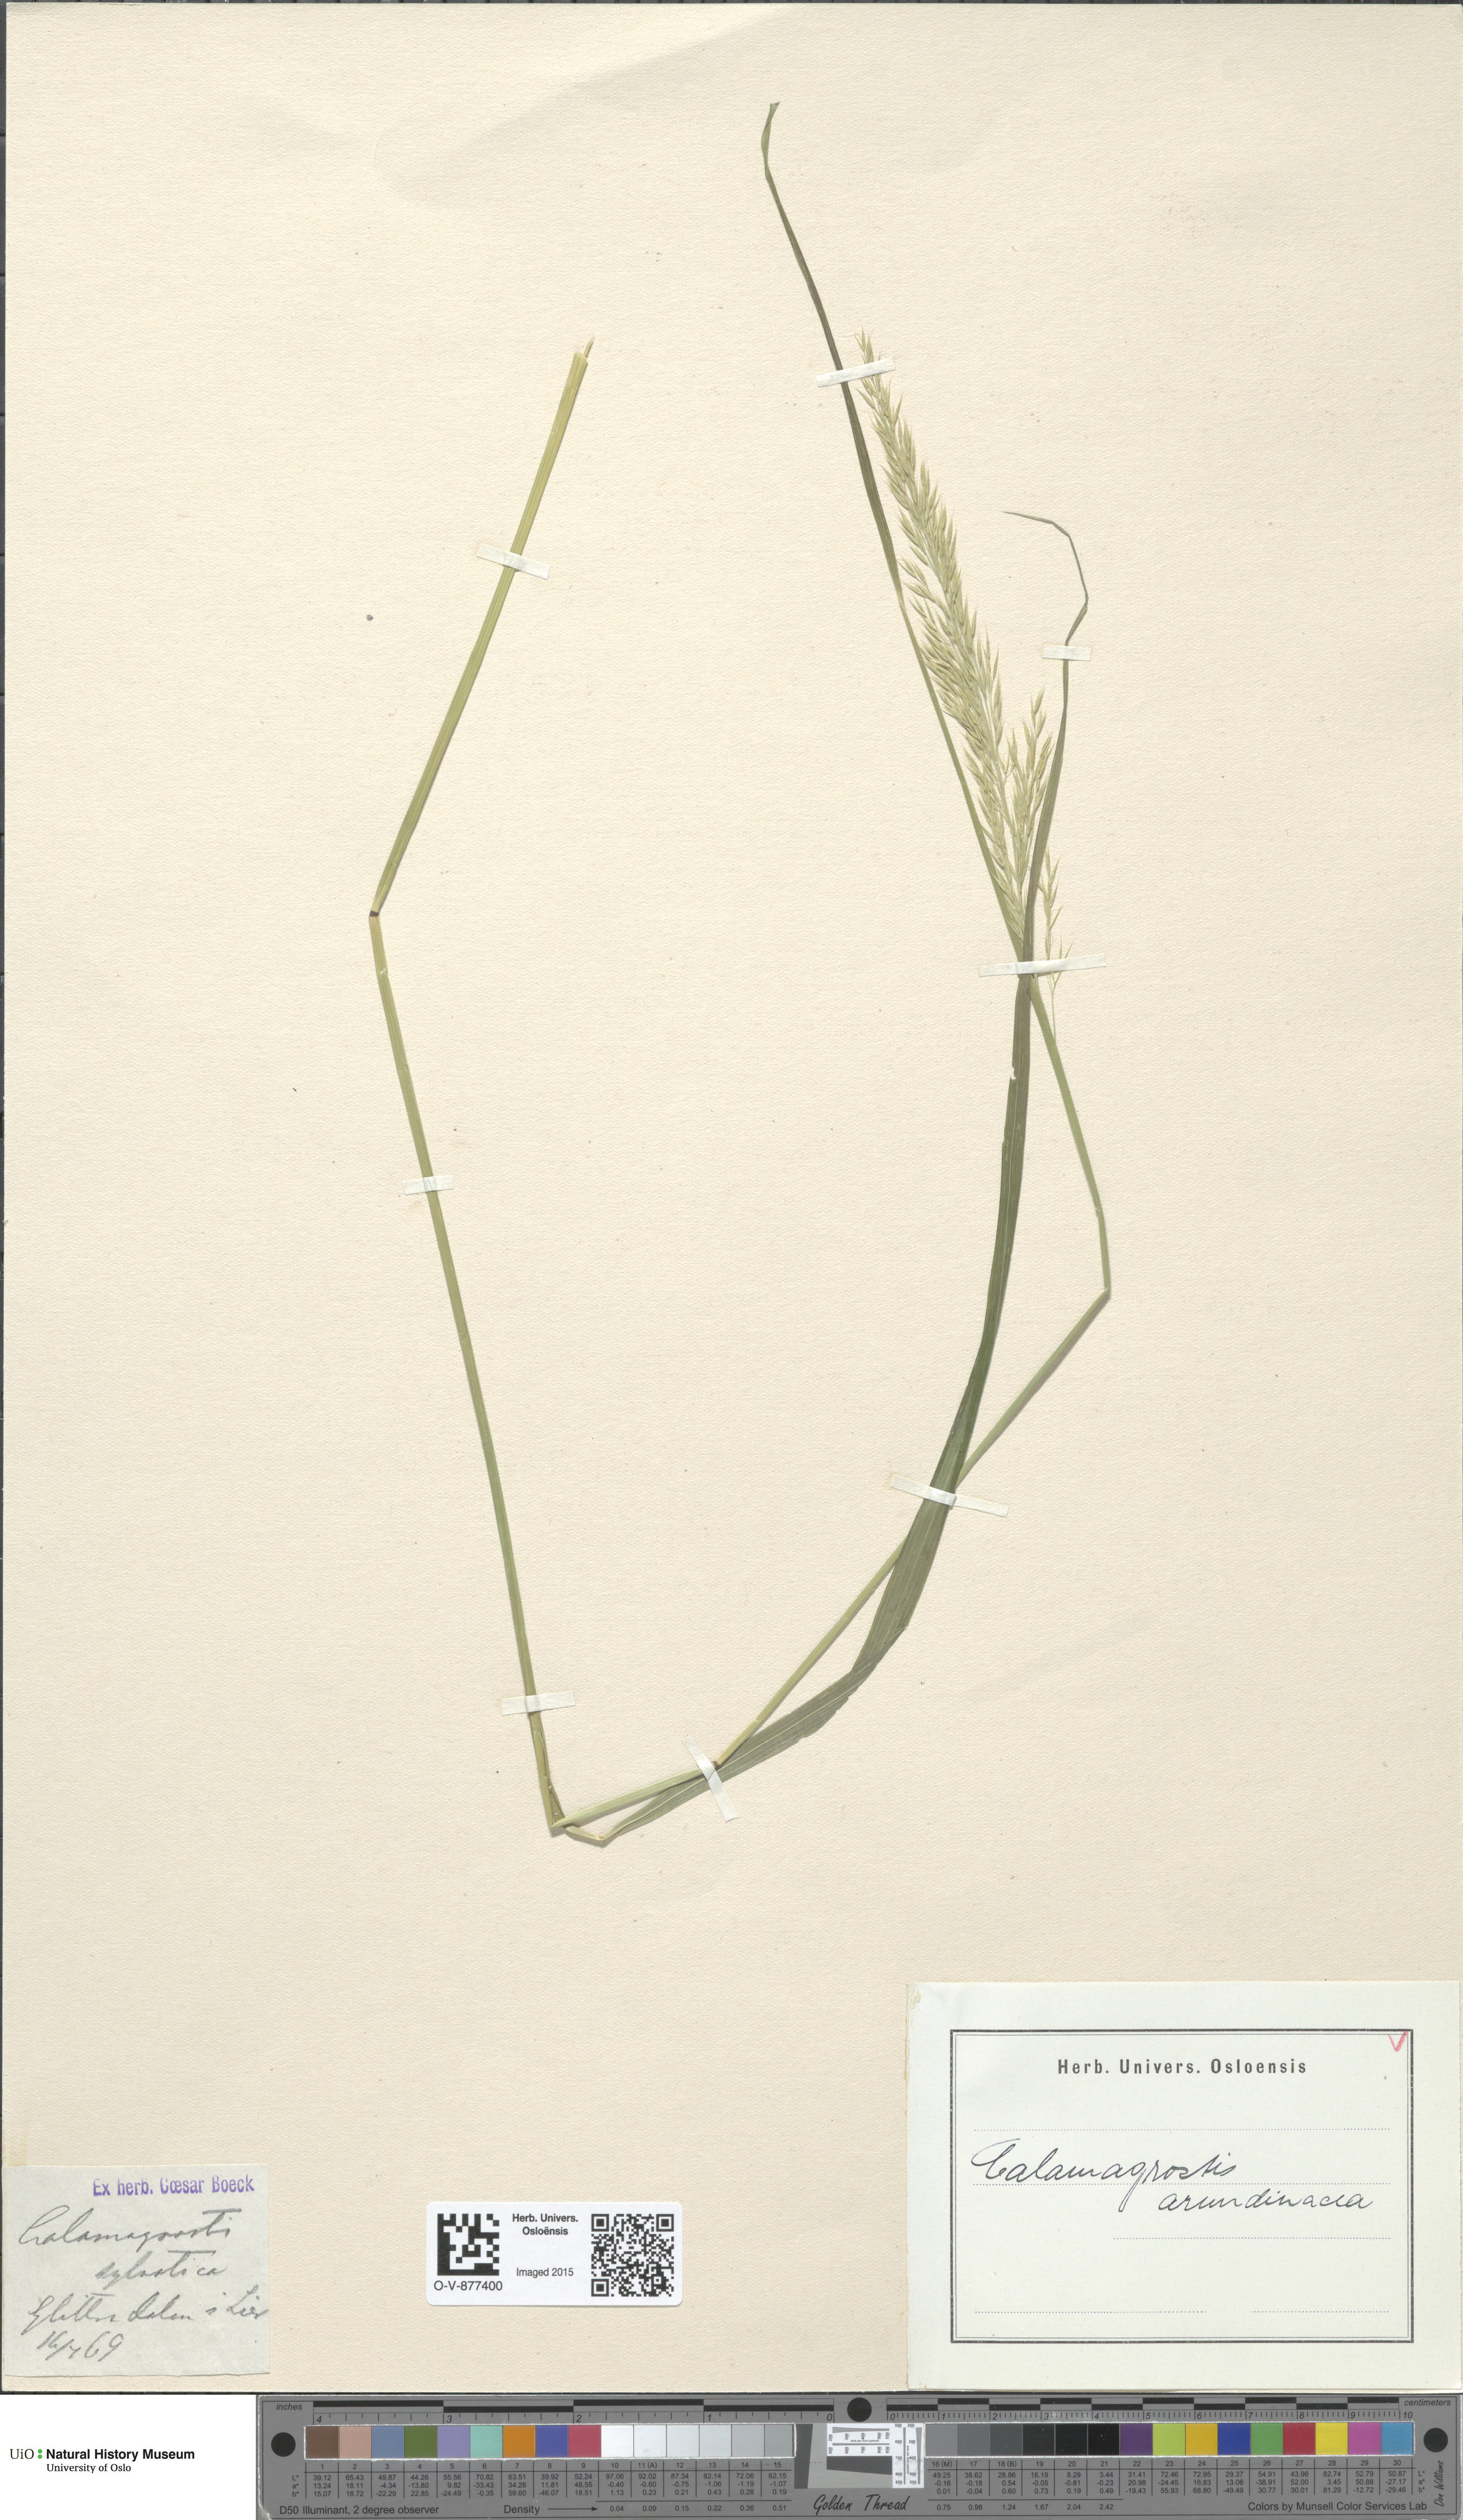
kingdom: Plantae
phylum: Tracheophyta
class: Liliopsida
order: Poales
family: Poaceae
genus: Calamagrostis
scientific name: Calamagrostis arundinacea
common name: Metskastik
